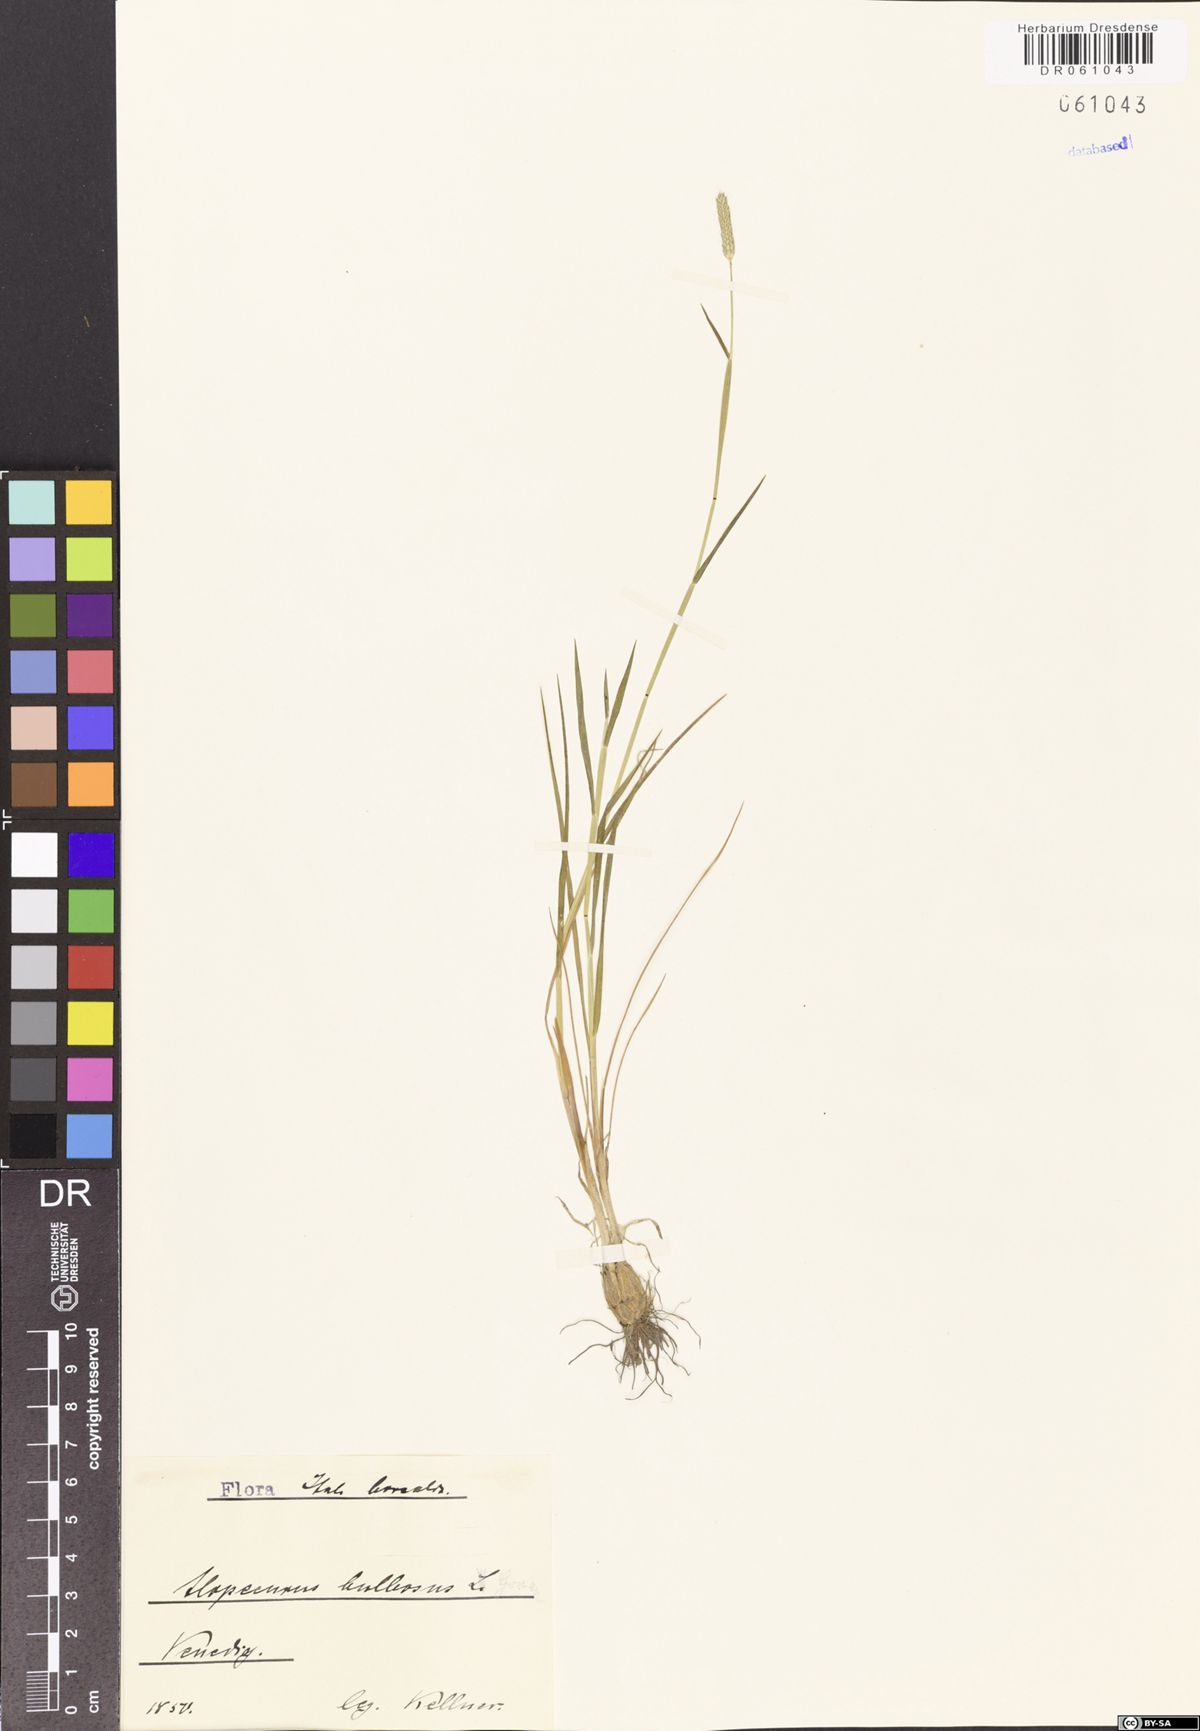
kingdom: Plantae
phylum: Tracheophyta
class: Liliopsida
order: Poales
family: Poaceae
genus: Alopecurus
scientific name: Alopecurus bulbosus
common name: Bulbous foxtail
